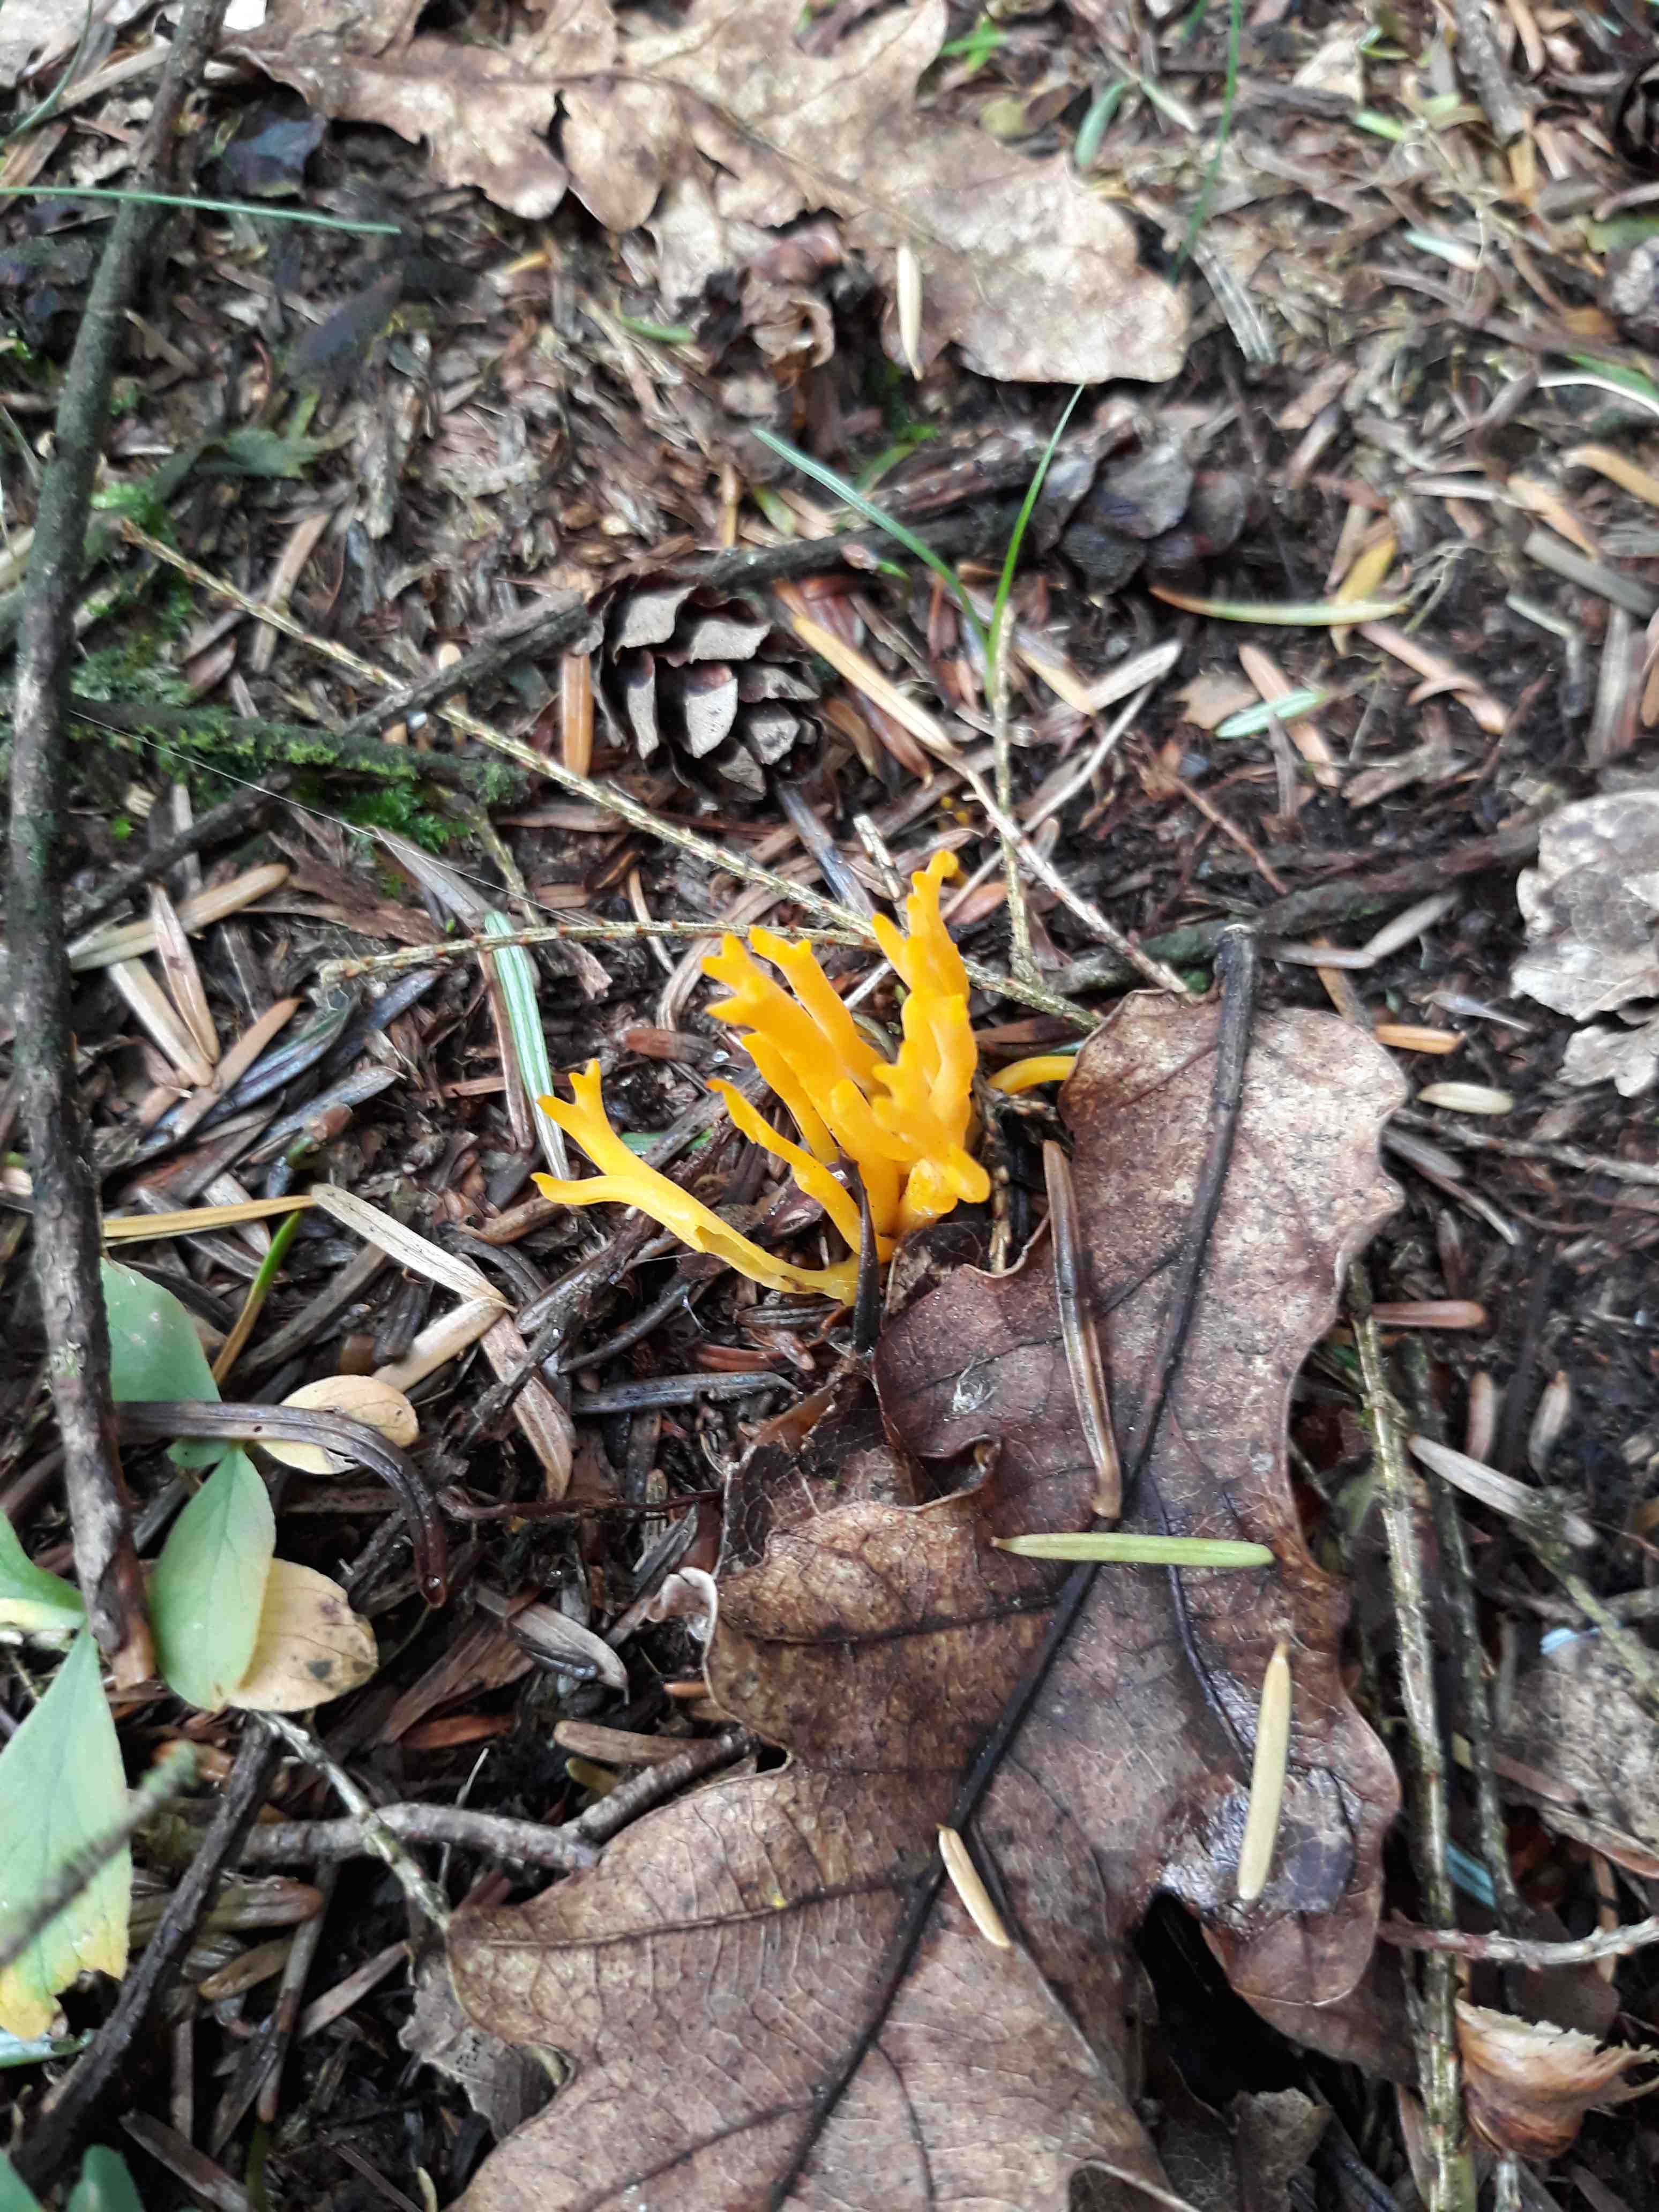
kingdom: Fungi
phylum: Basidiomycota
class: Dacrymycetes
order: Dacrymycetales
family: Dacrymycetaceae
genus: Calocera
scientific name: Calocera viscosa
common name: almindelig guldgaffel
